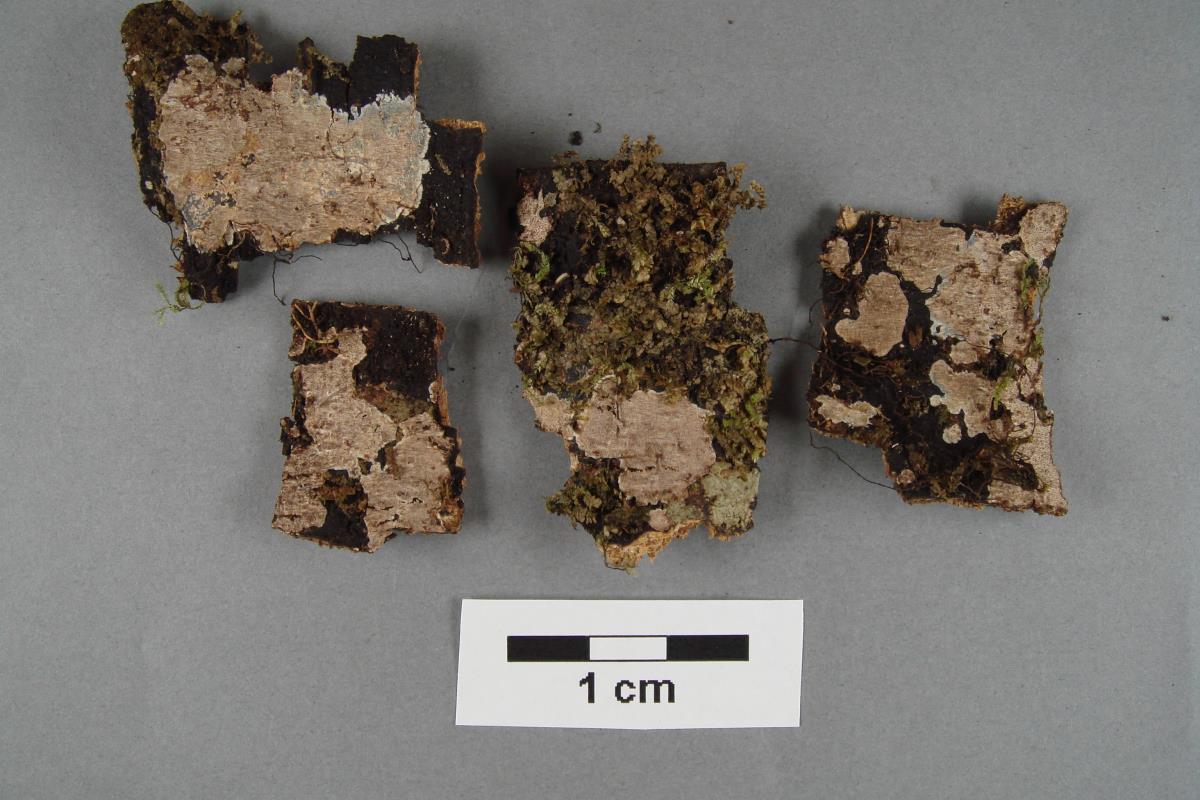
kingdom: Fungi
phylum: Basidiomycota
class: Agaricomycetes
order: Polyporales
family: Irpicaceae
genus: Irpex
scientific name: Irpex tasmanicus
